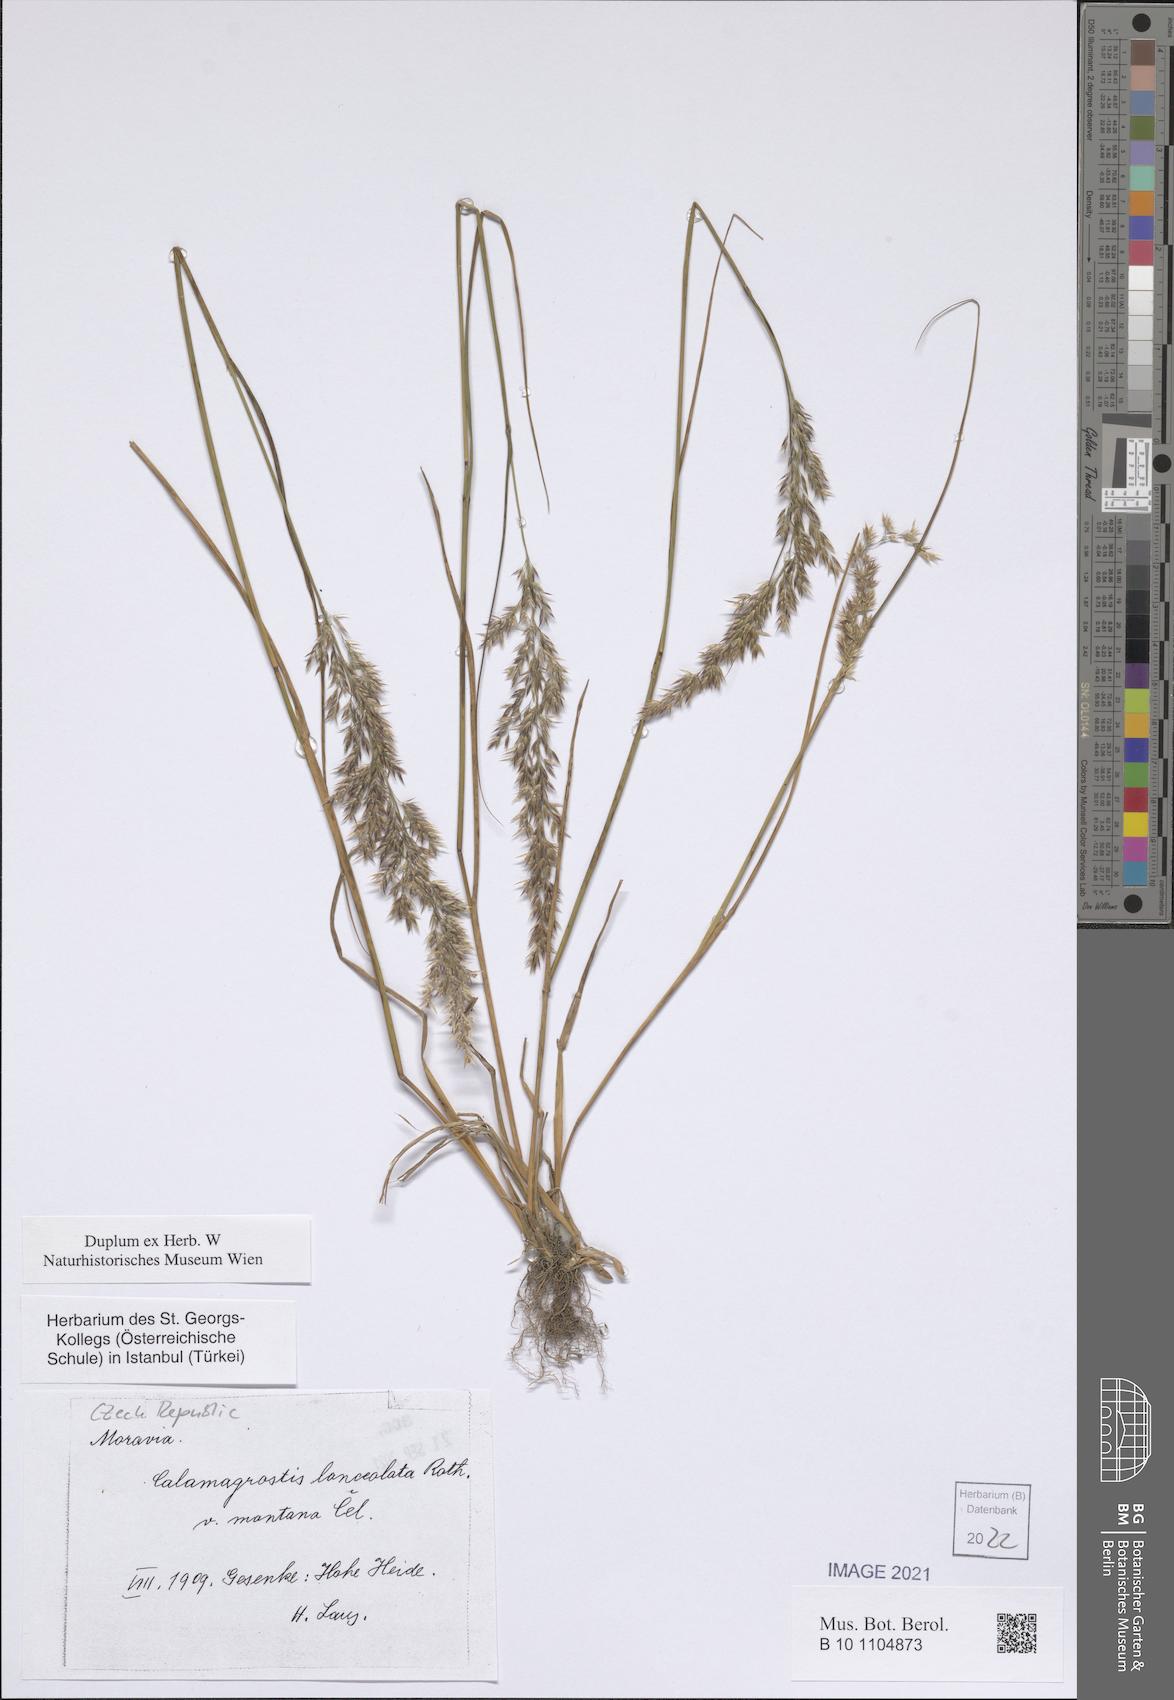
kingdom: Plantae
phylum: Tracheophyta
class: Liliopsida
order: Poales
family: Poaceae
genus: Calamagrostis
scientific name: Calamagrostis canescens
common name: Purple small-reed
